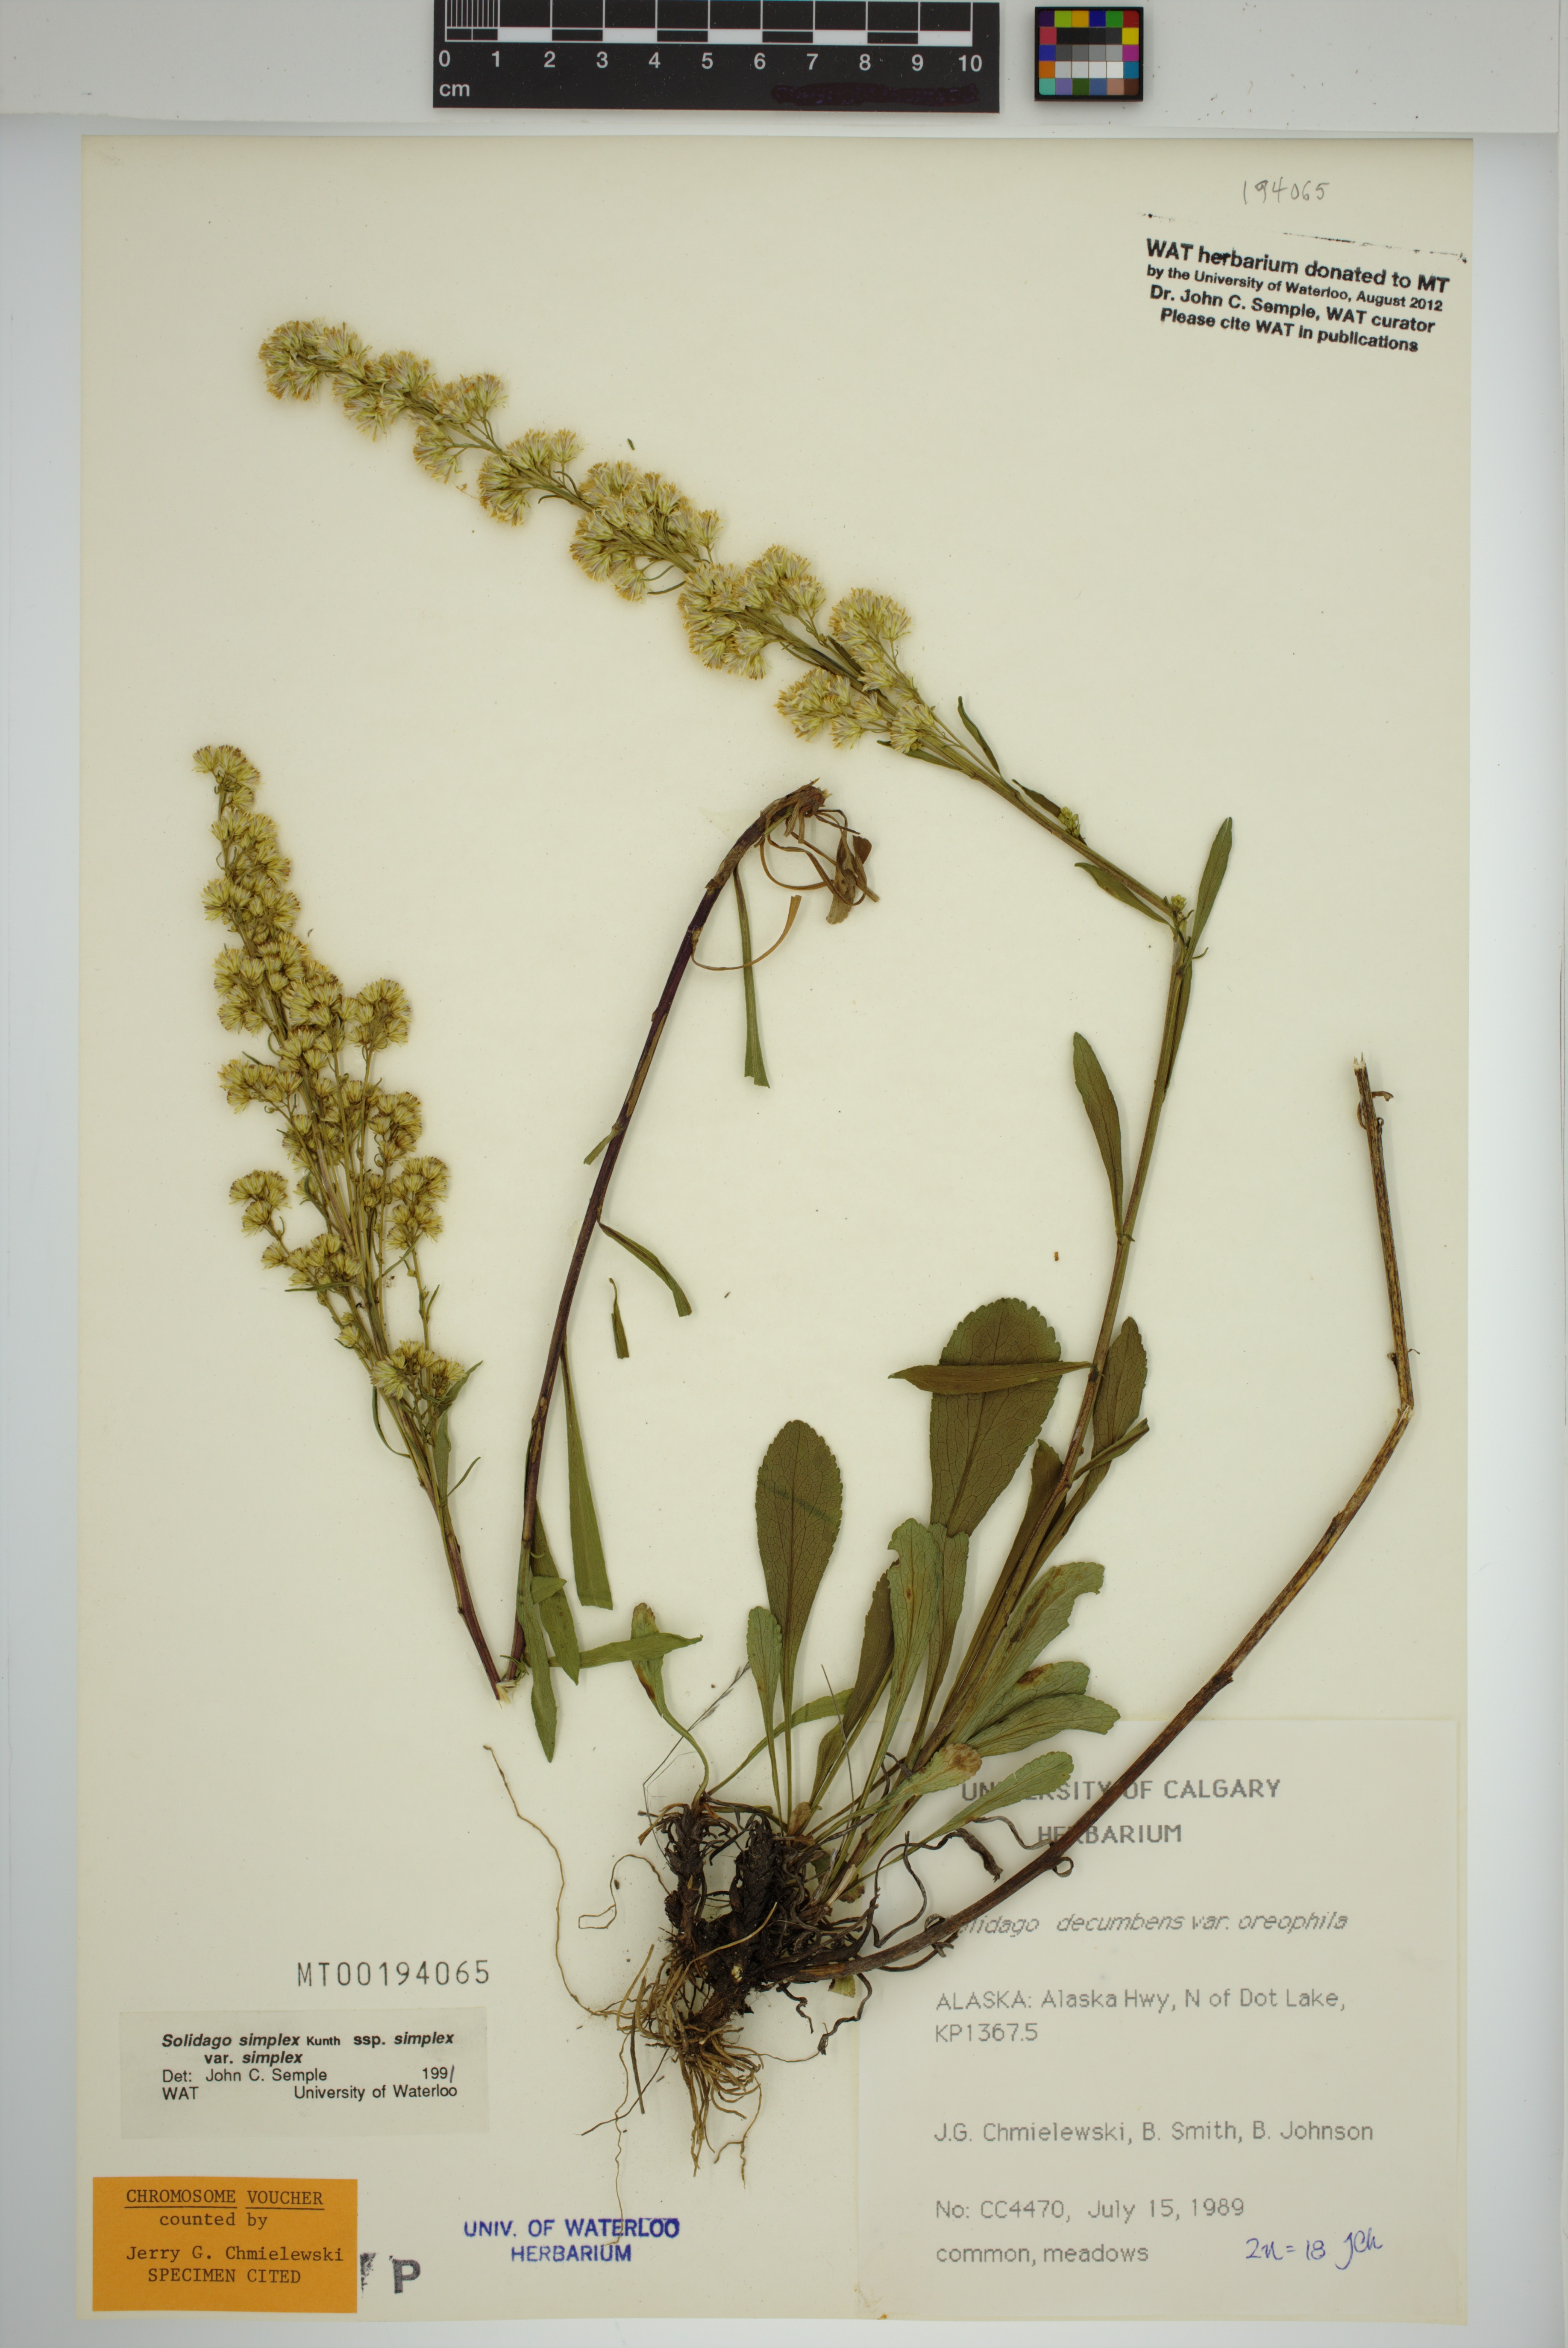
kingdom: Plantae
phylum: Tracheophyta
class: Magnoliopsida
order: Asterales
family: Asteraceae
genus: Solidago
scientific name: Solidago glutinosa
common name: Decumbent goldenrod
